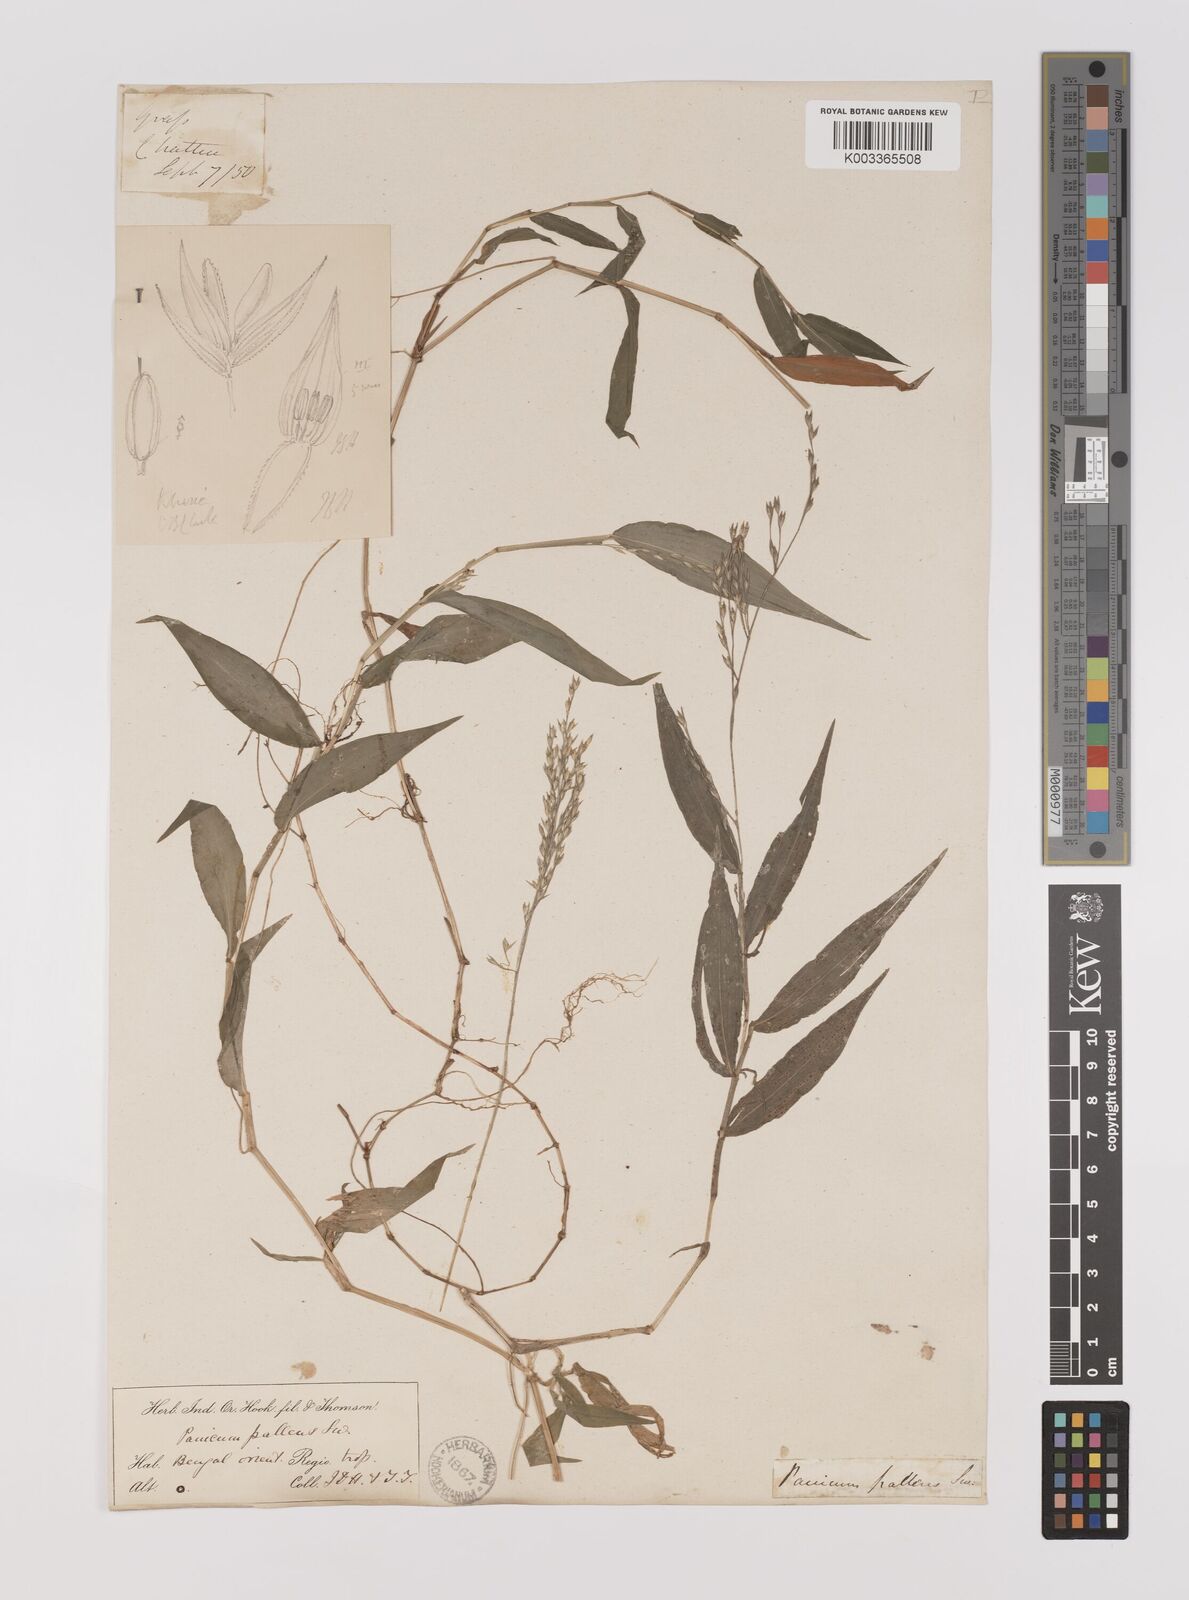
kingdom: Plantae
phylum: Tracheophyta
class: Liliopsida
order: Poales
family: Poaceae
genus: Ichnanthus
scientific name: Ichnanthus pallens
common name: Water grass
